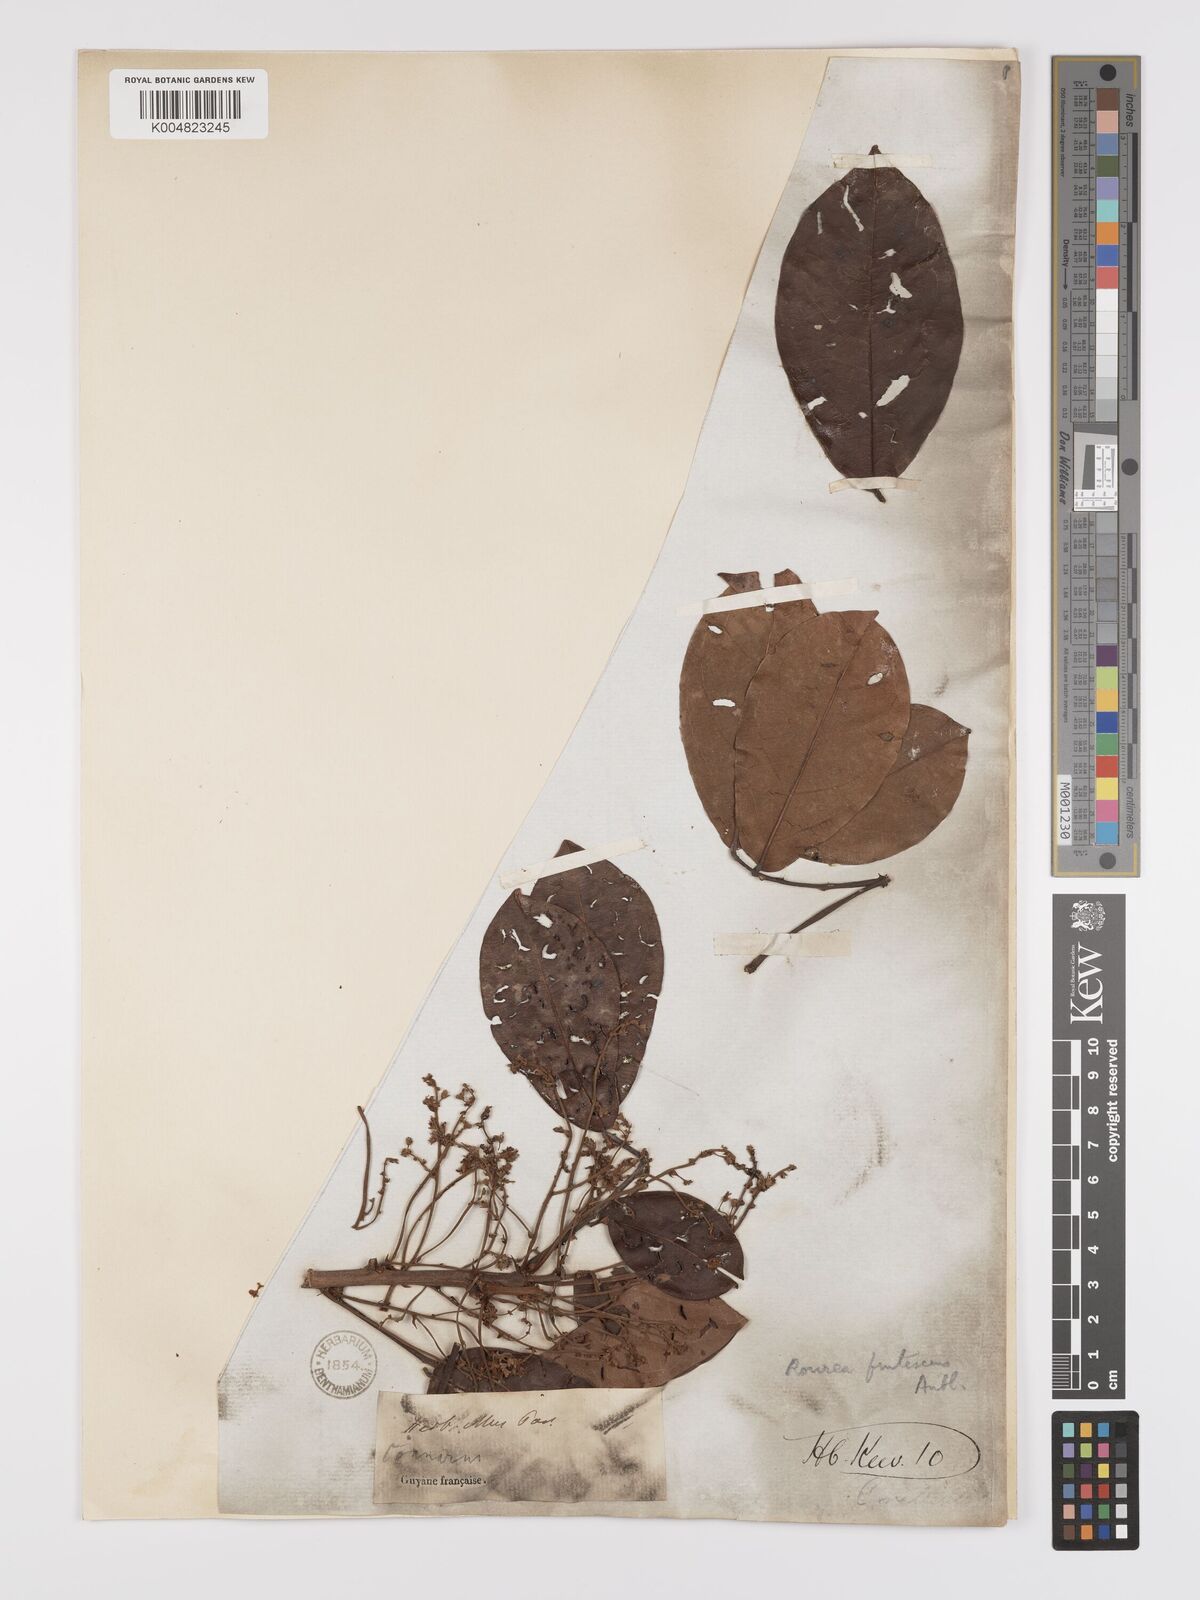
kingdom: Plantae
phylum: Tracheophyta
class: Magnoliopsida
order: Oxalidales
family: Connaraceae
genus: Rourea
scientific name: Rourea frutescens
